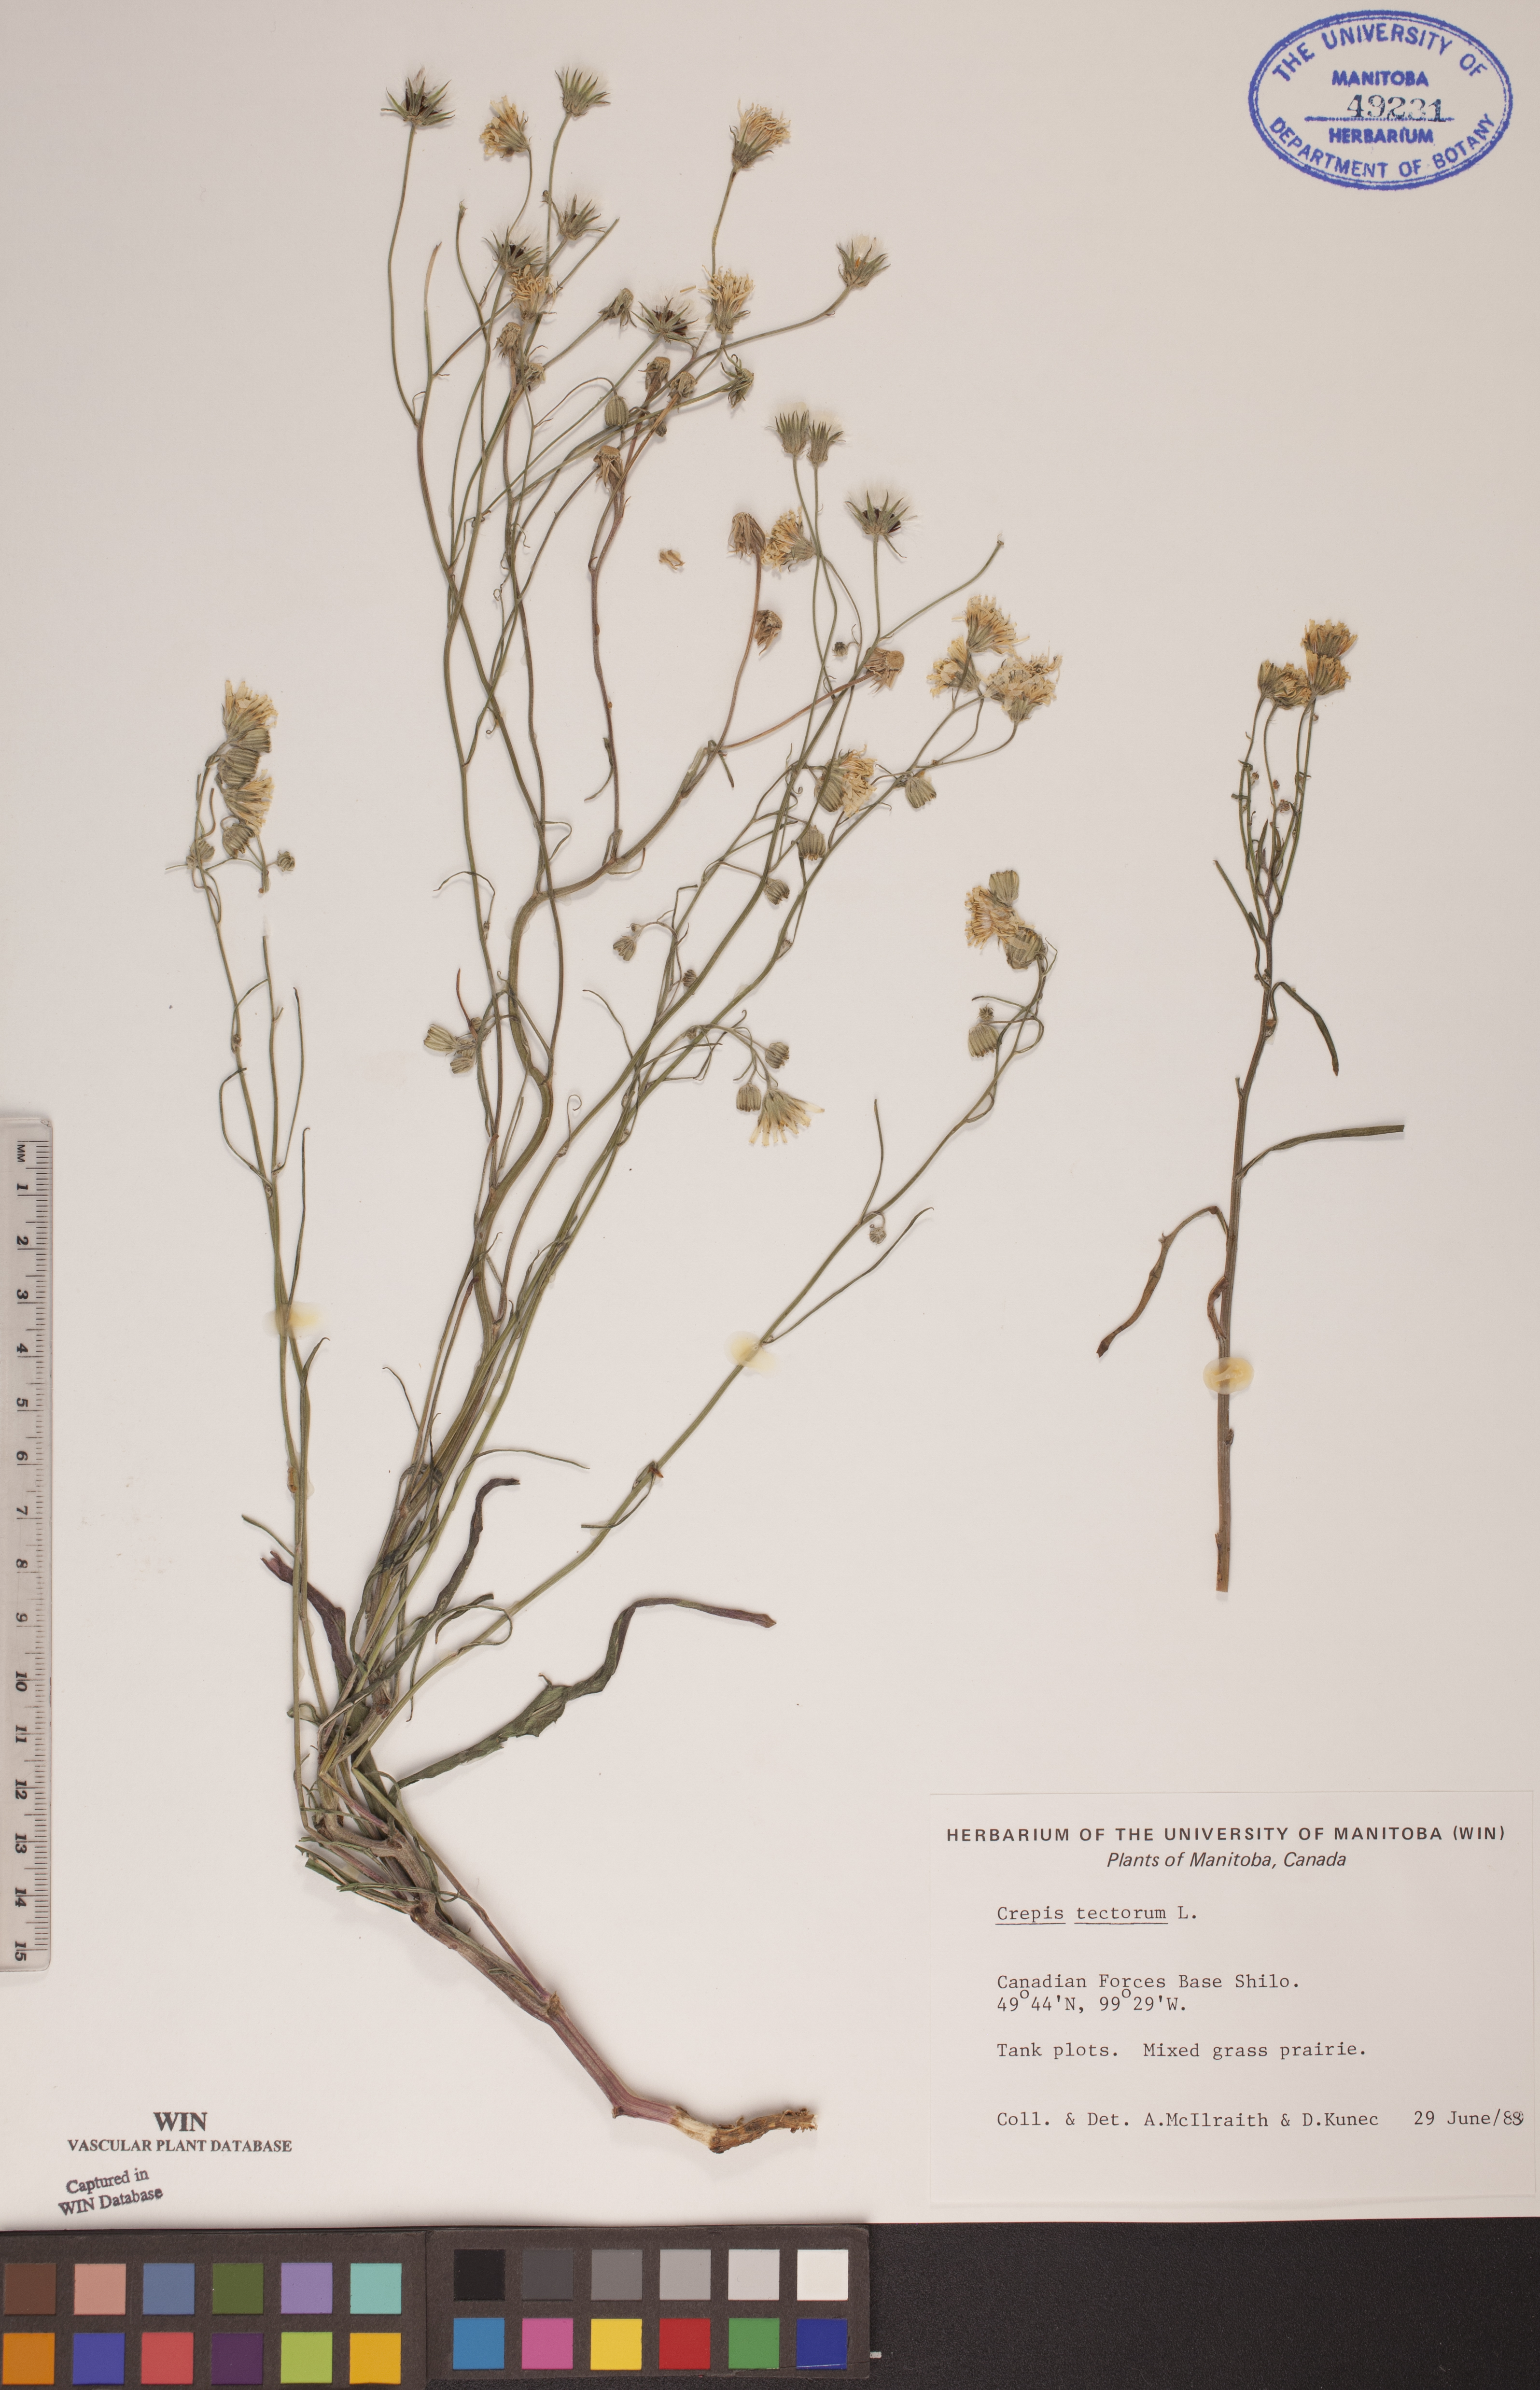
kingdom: Plantae
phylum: Tracheophyta
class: Magnoliopsida
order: Asterales
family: Asteraceae
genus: Crepis
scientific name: Crepis tectorum
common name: Narrow-leaved hawk's-beard
